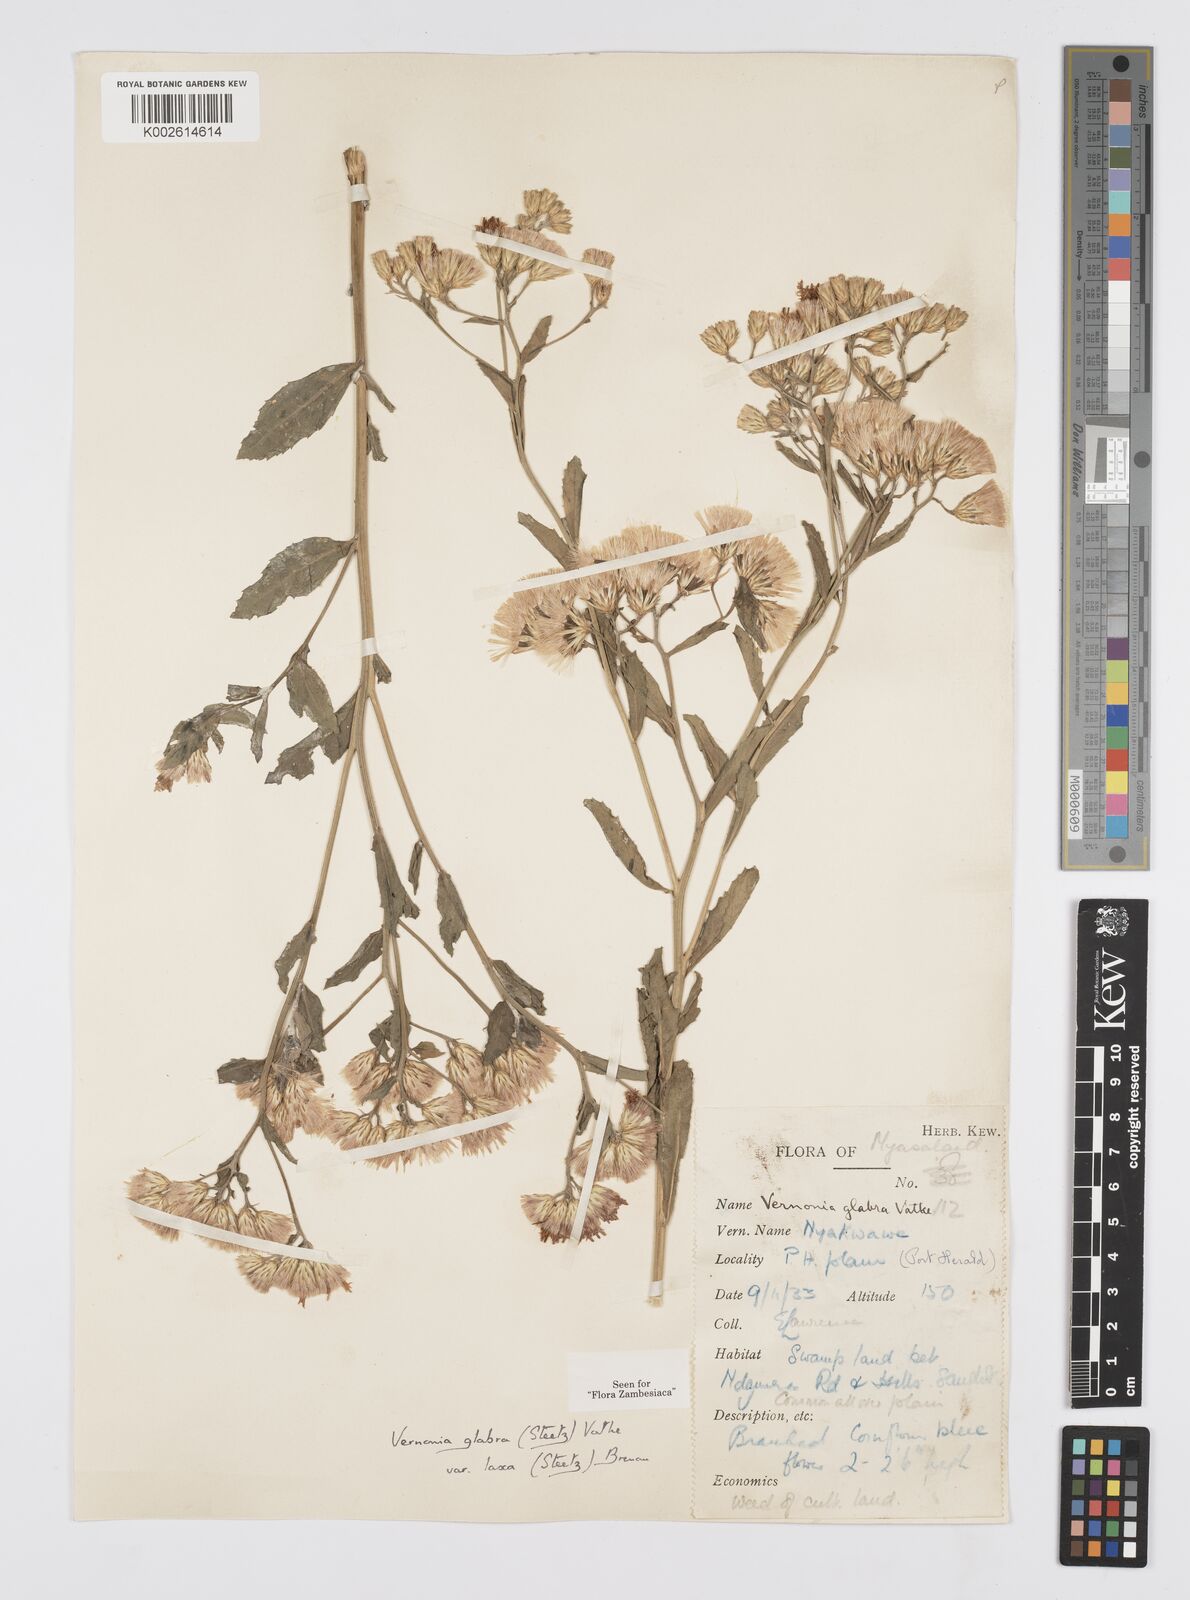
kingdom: Plantae
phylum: Tracheophyta
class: Magnoliopsida
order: Asterales
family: Asteraceae
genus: Linzia
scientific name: Linzia glabra
